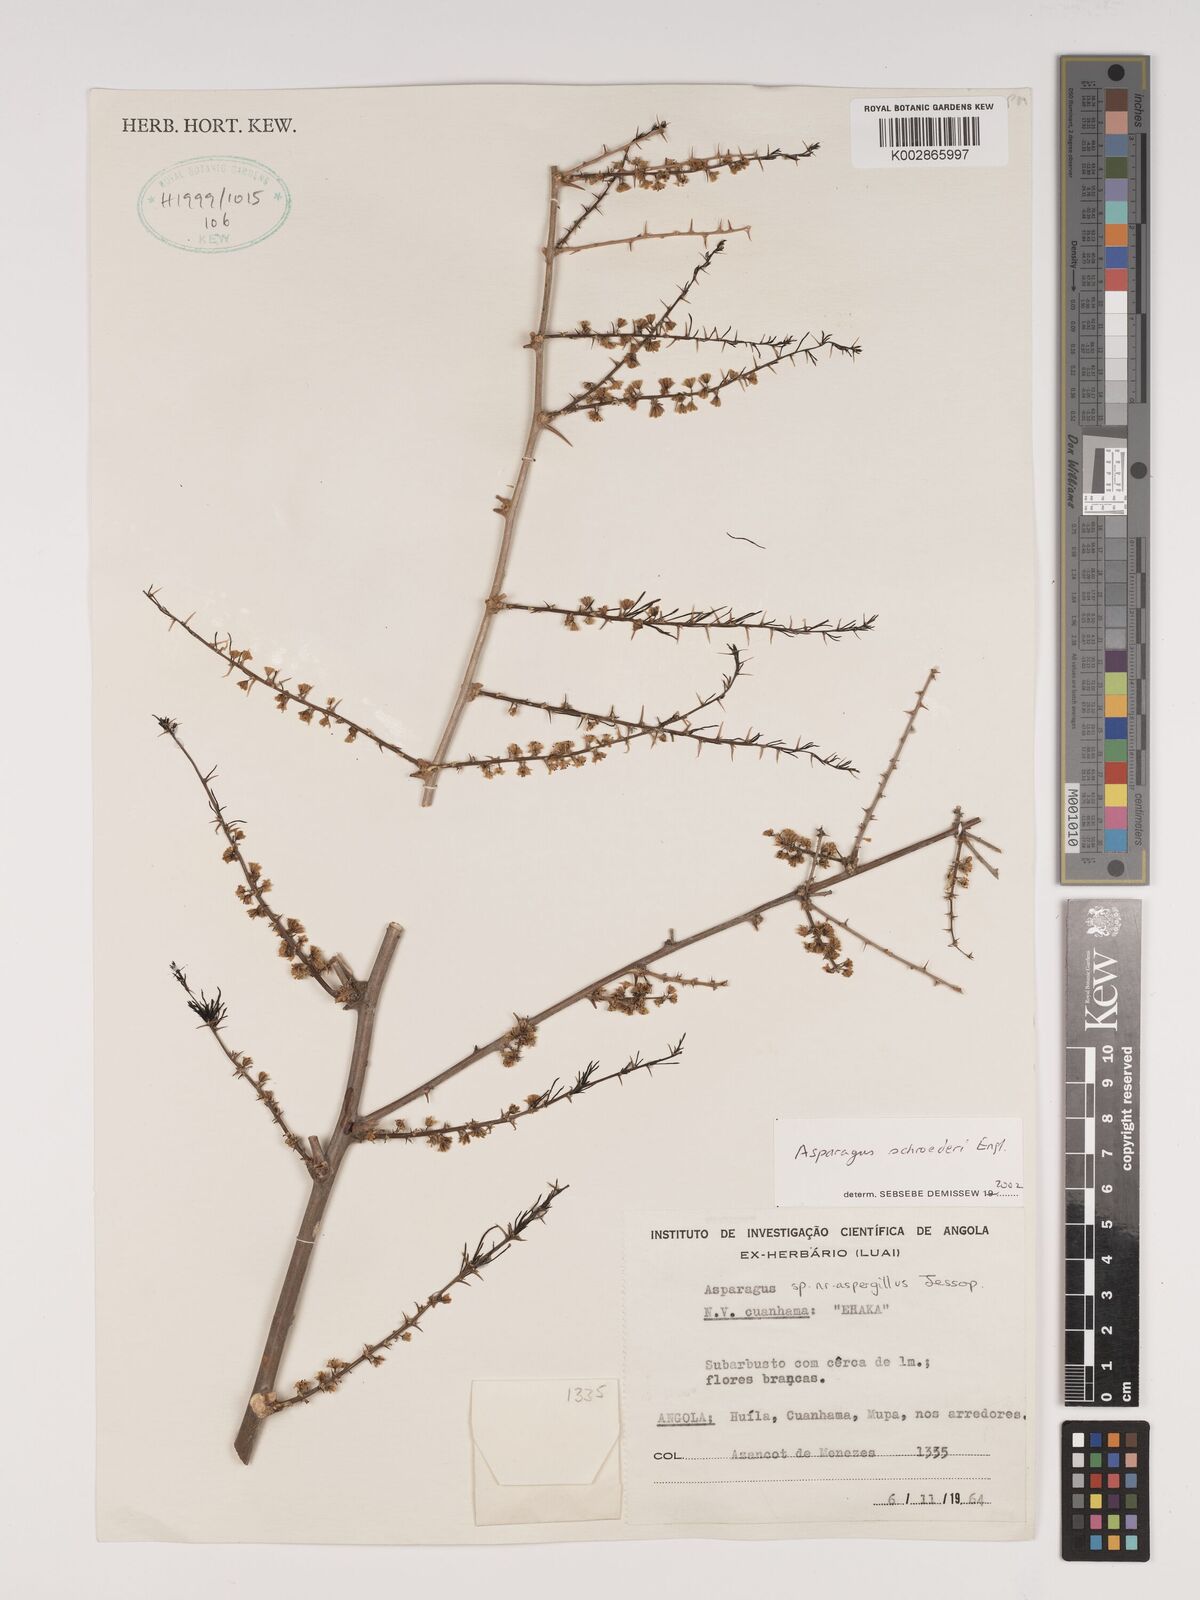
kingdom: Plantae
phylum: Tracheophyta
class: Liliopsida
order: Asparagales
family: Asparagaceae
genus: Asparagus
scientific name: Asparagus schroederi
